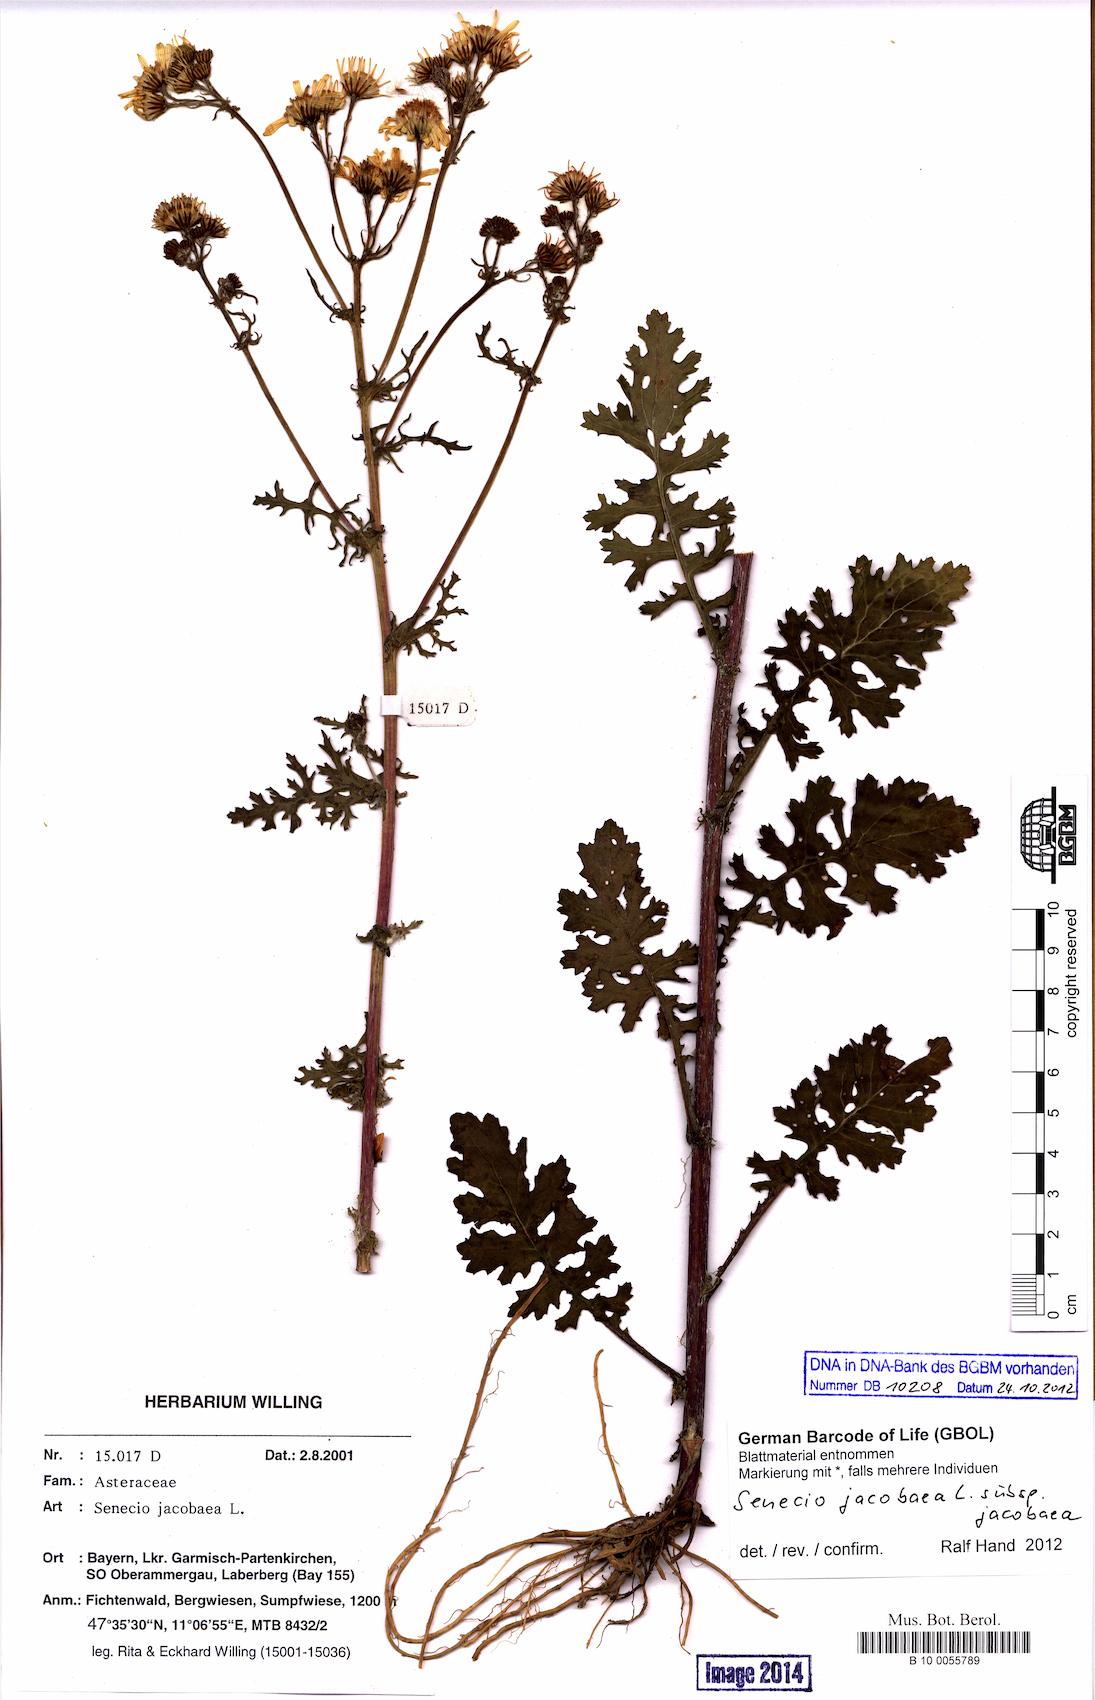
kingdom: Plantae
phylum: Tracheophyta
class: Magnoliopsida
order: Asterales
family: Asteraceae
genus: Jacobaea
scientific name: Jacobaea vulgaris
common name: Stinking willie
